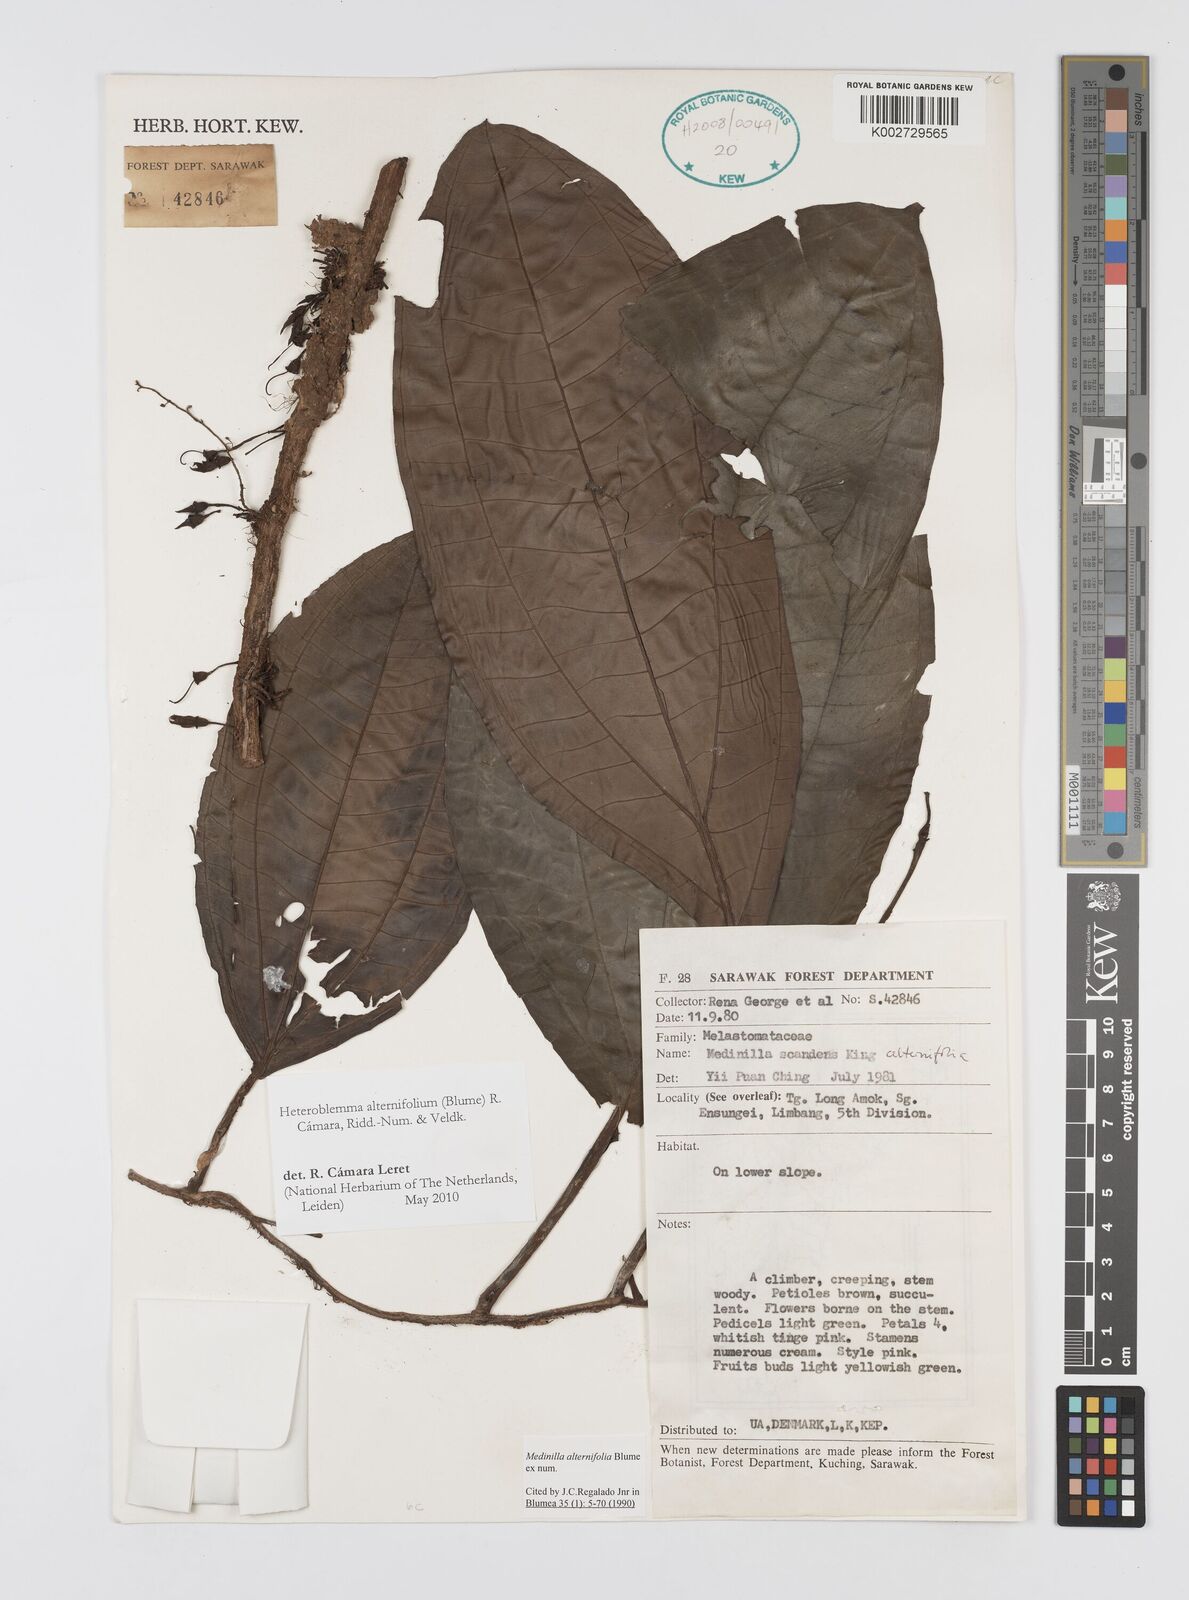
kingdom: Plantae
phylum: Tracheophyta
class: Magnoliopsida
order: Myrtales
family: Melastomataceae
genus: Heteroblemma
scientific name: Heteroblemma alternifolium
